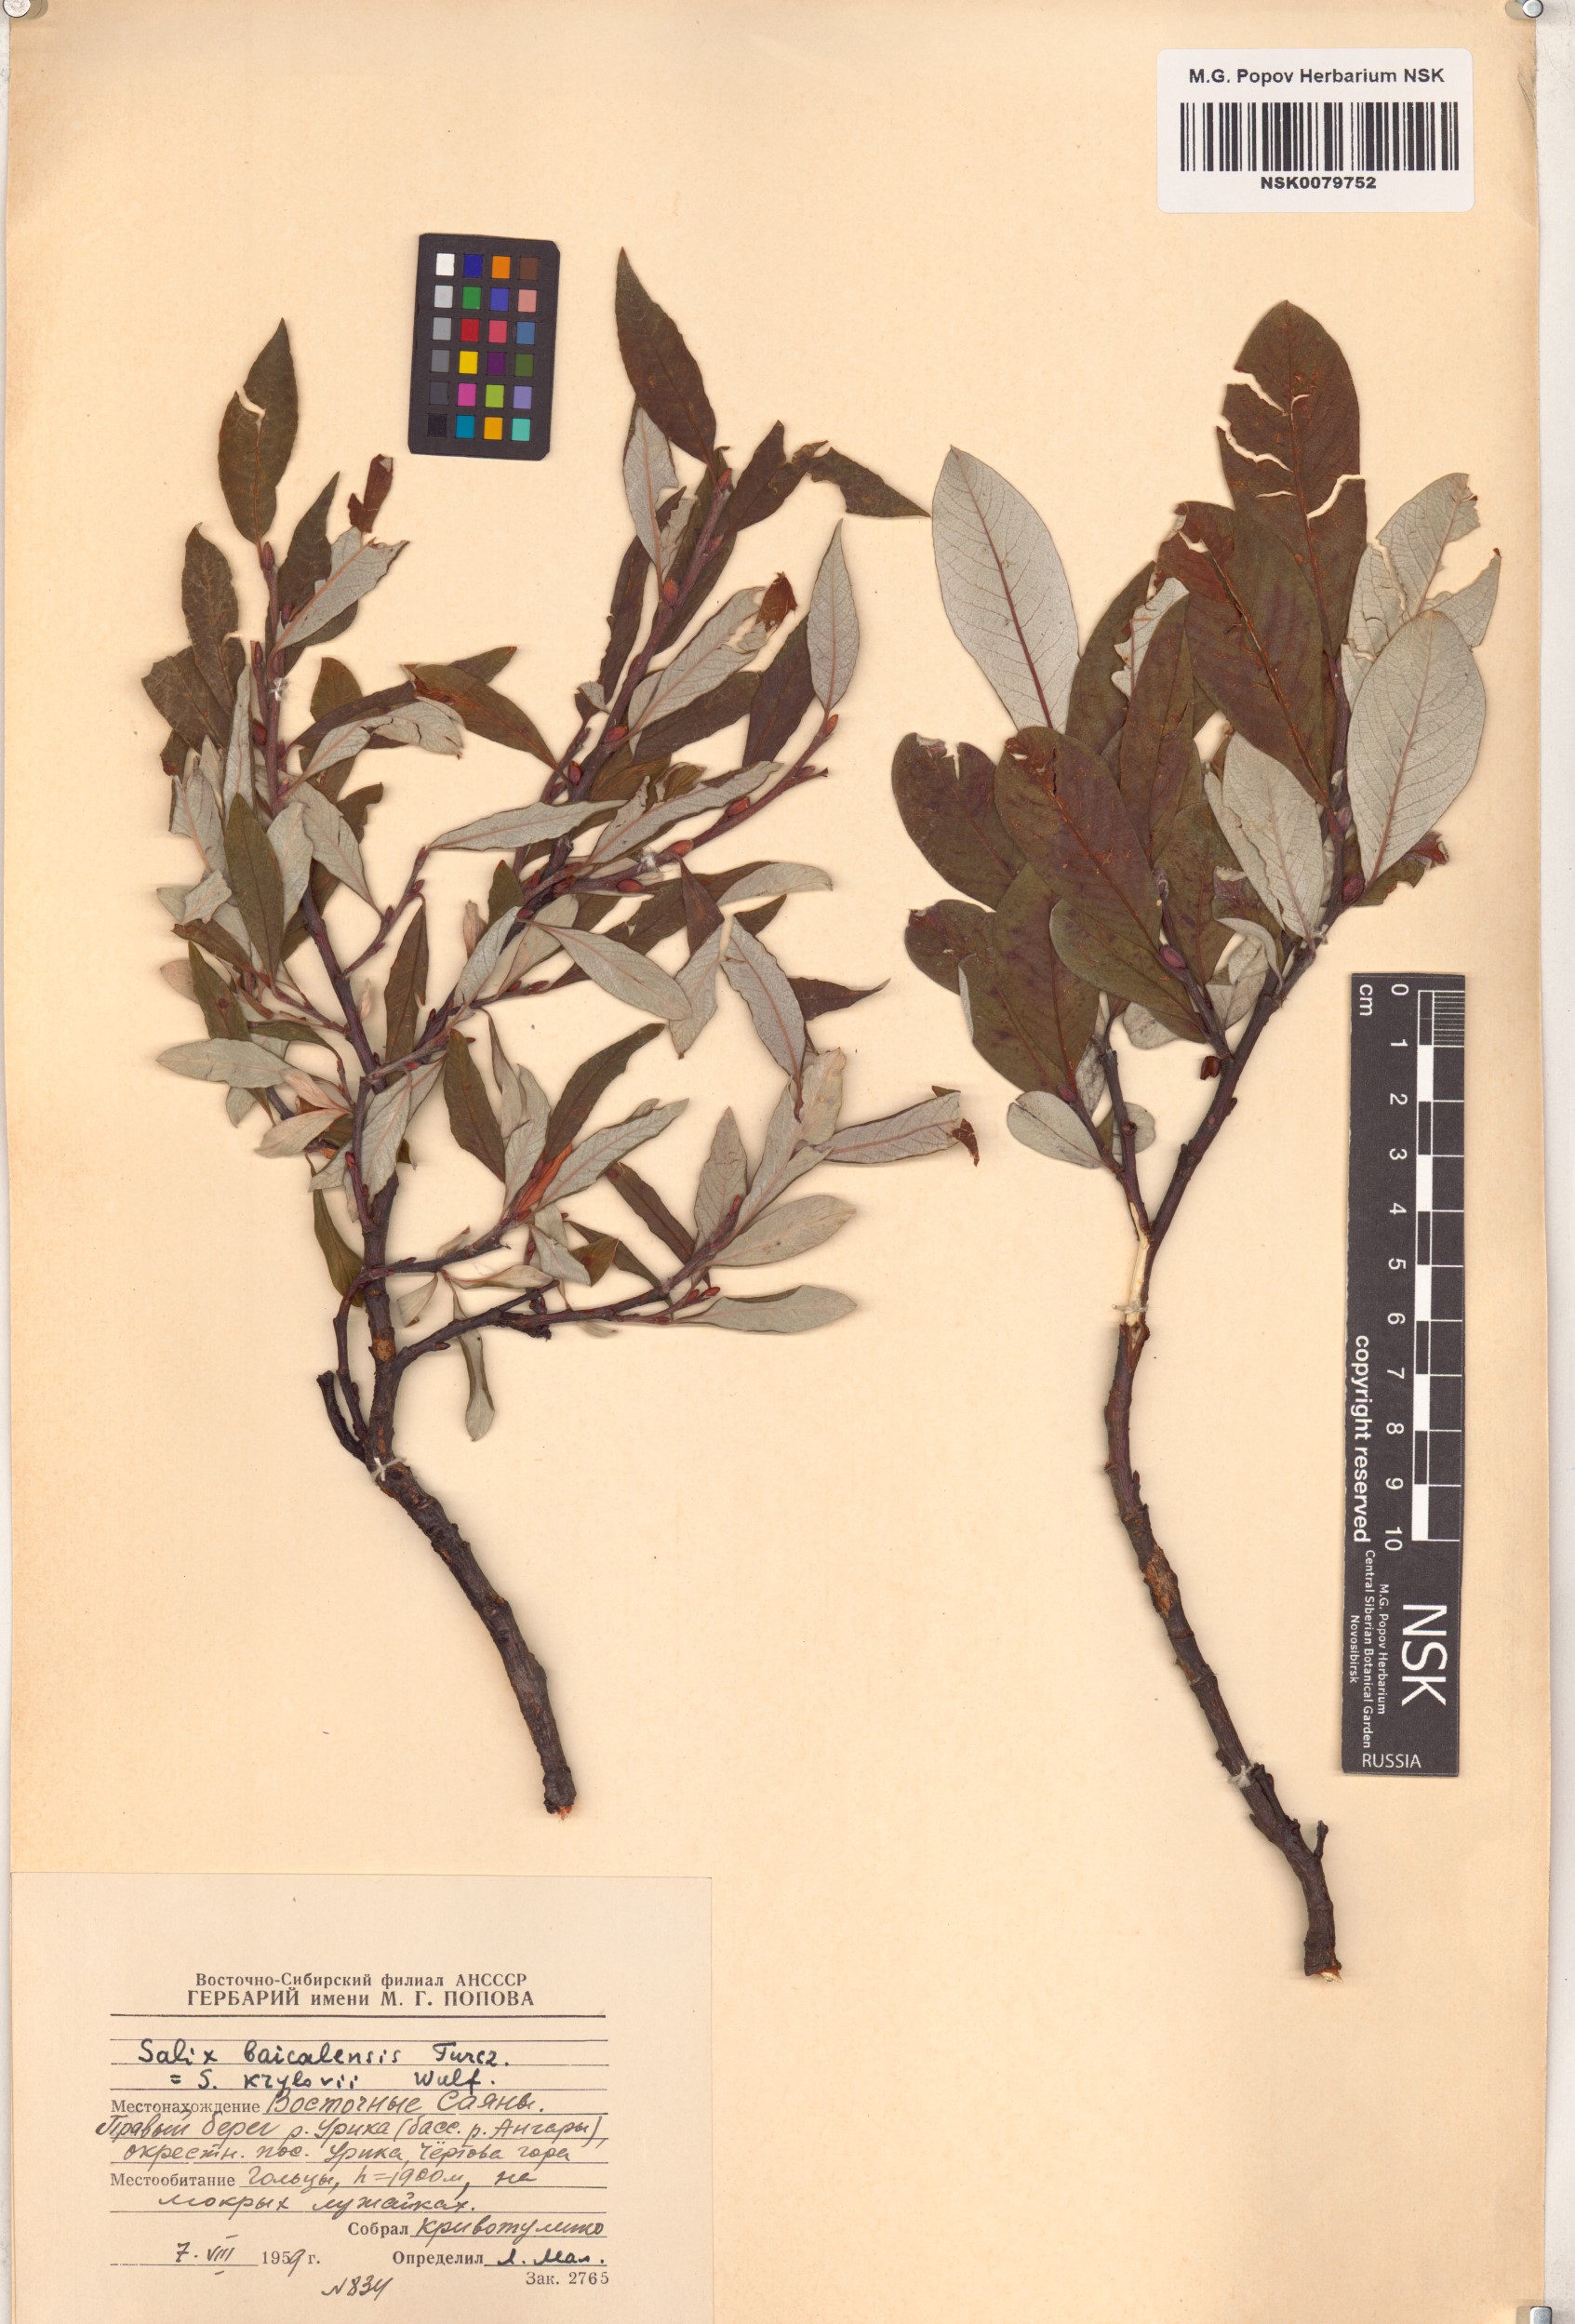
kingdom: Plantae
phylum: Tracheophyta
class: Magnoliopsida
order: Malpighiales
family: Salicaceae
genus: Salix
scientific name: Salix krylovii
